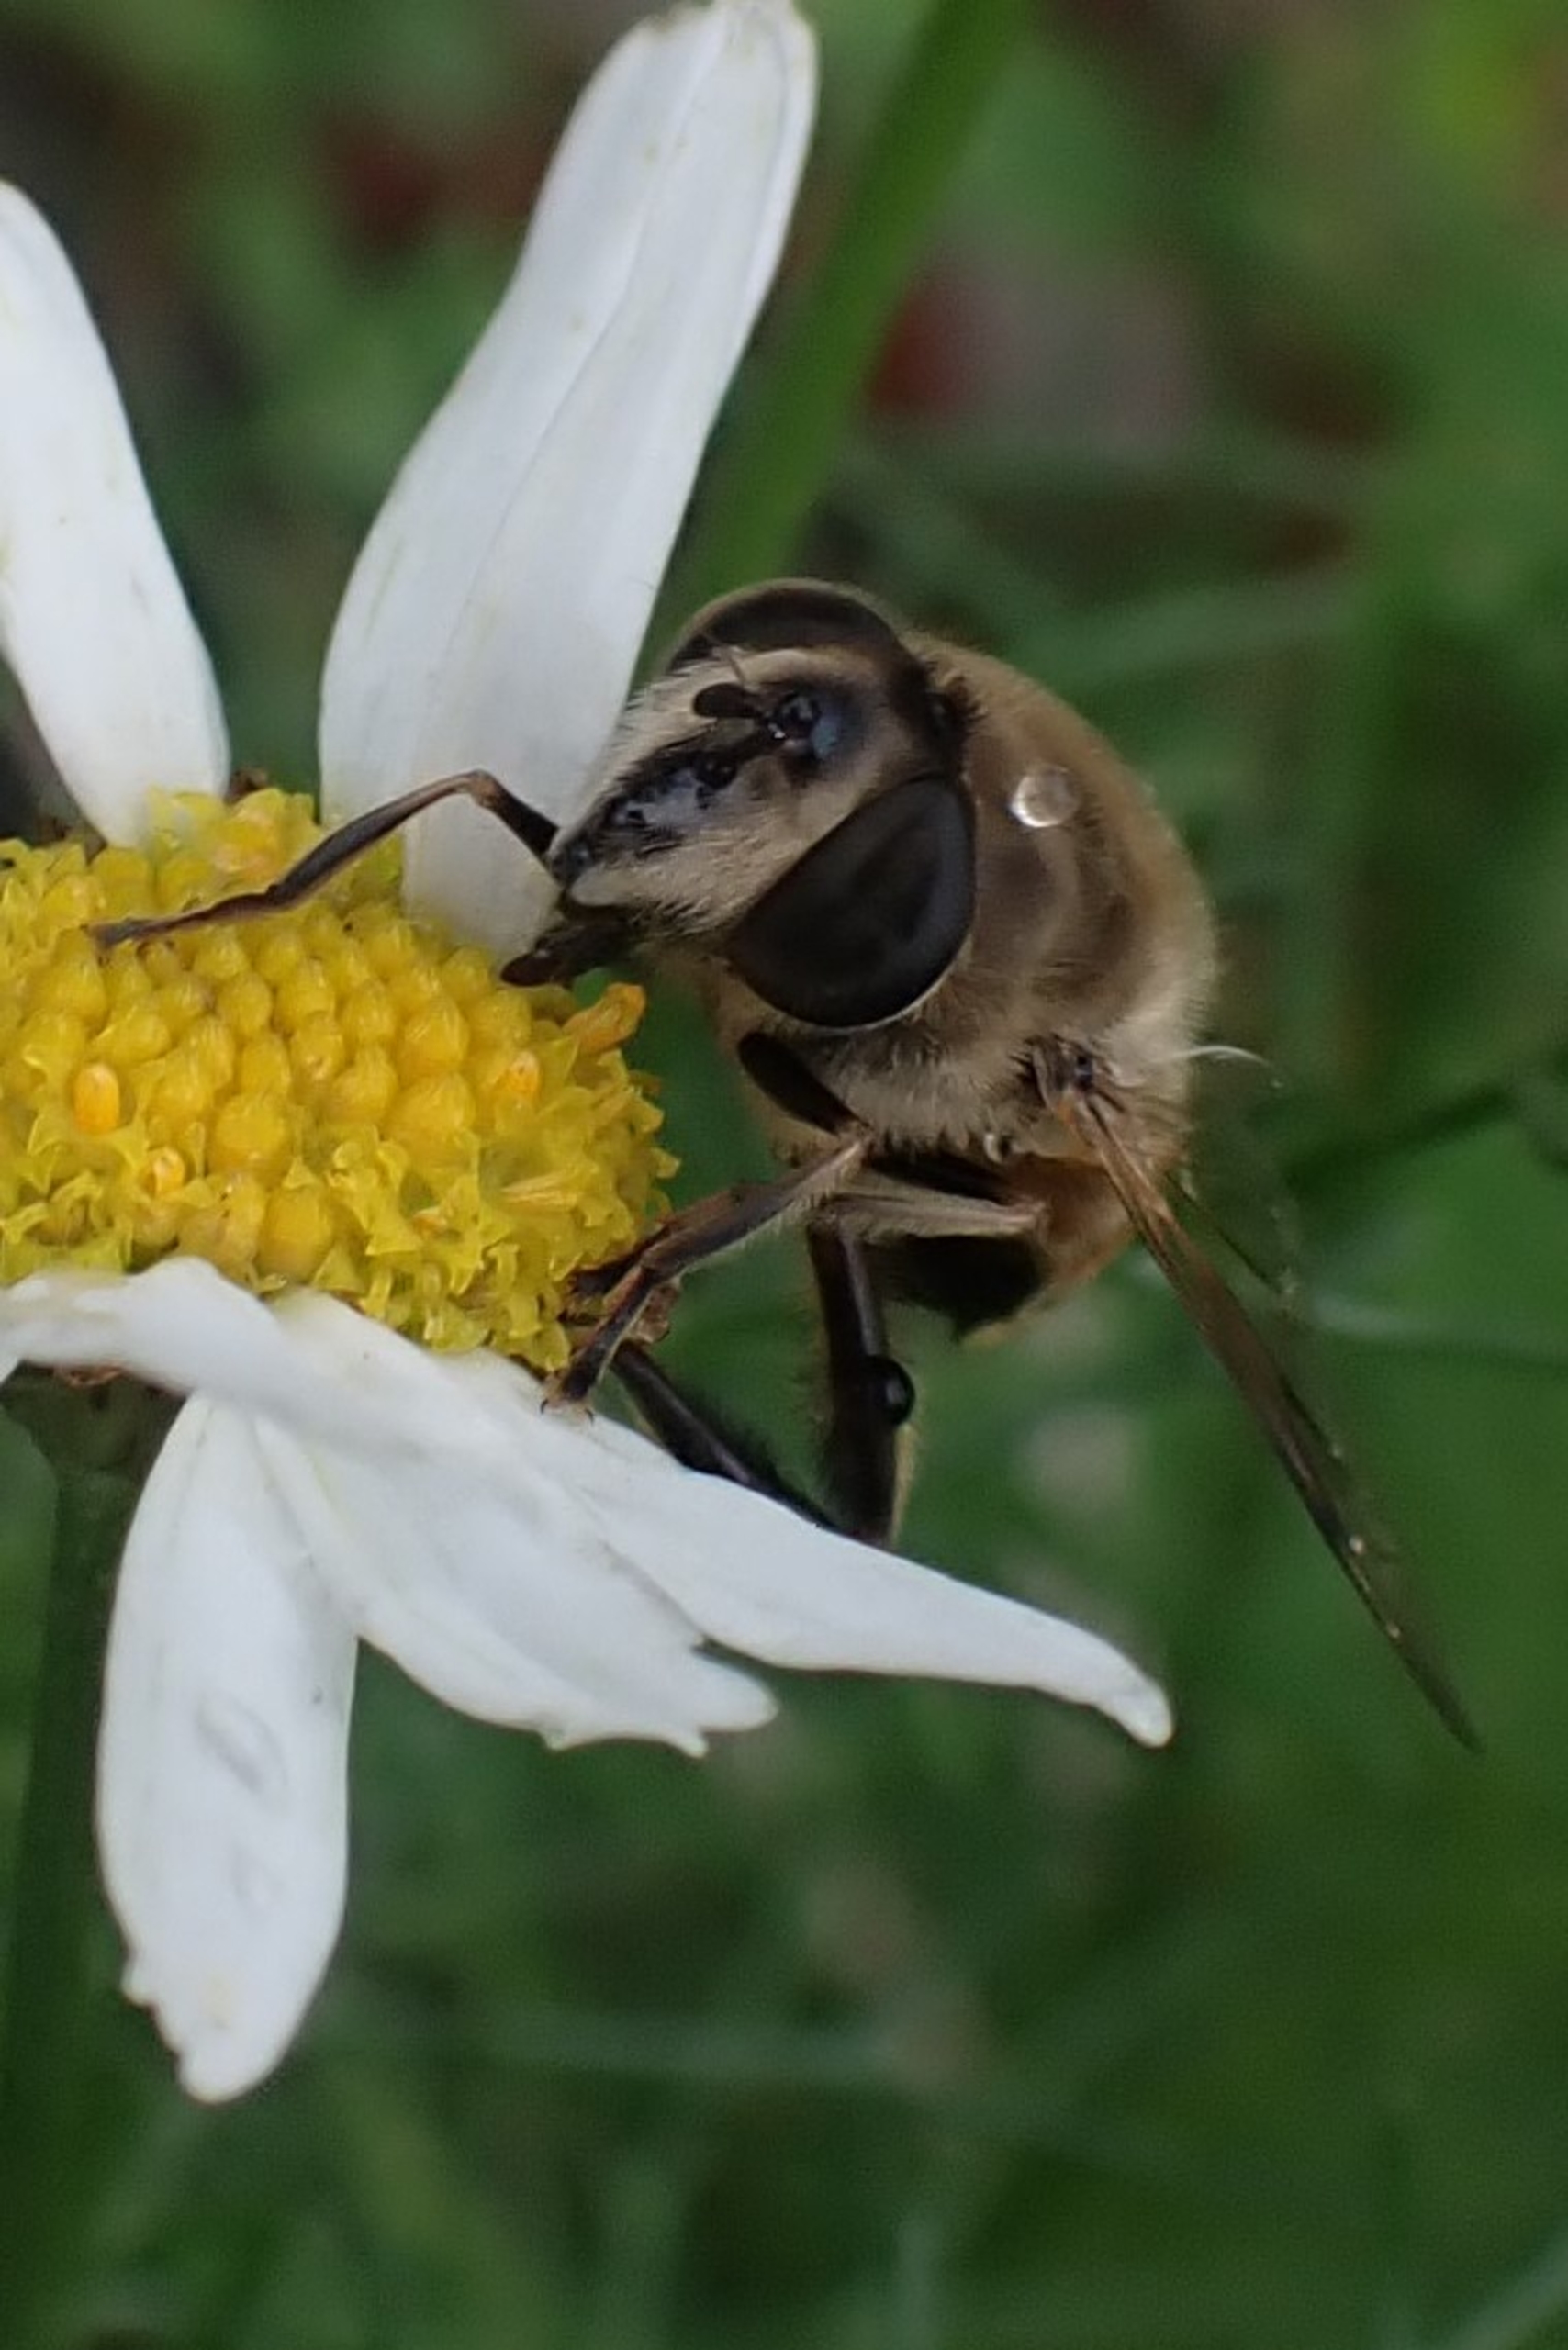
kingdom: Animalia
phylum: Arthropoda
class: Insecta
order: Diptera
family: Syrphidae
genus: Eristalis
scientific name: Eristalis tenax
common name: Droneflue
